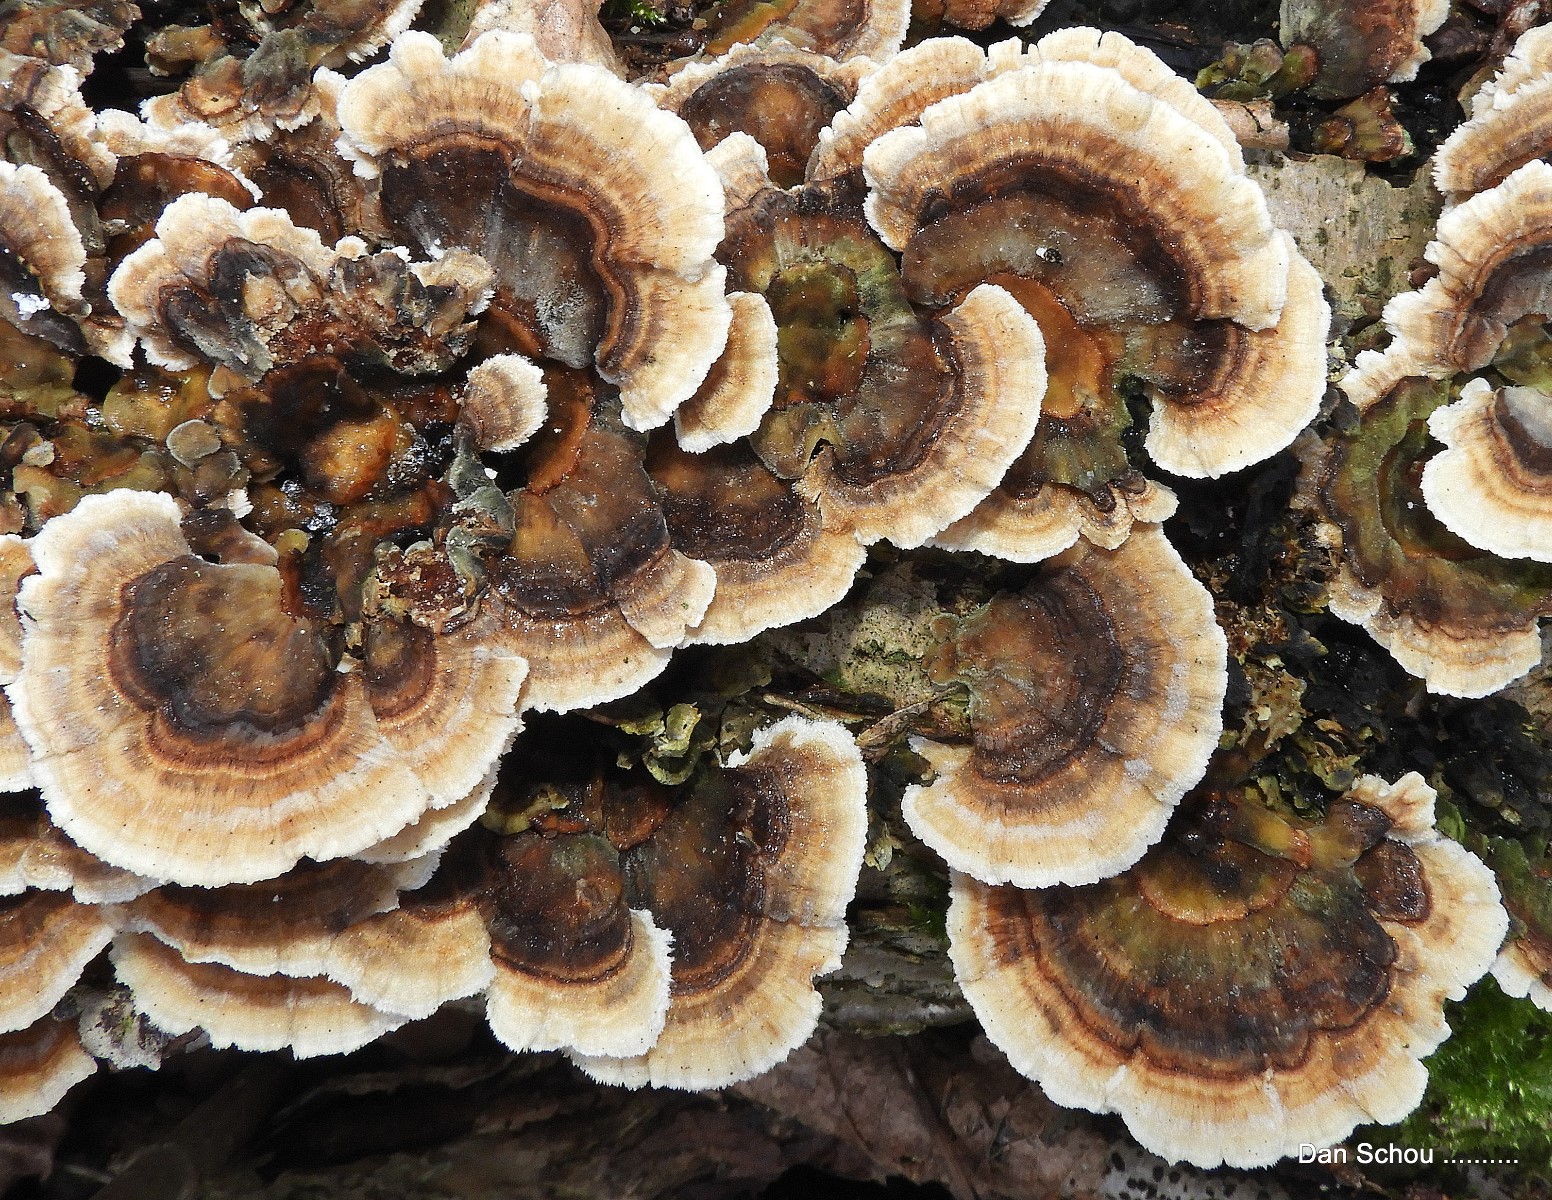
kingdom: Fungi
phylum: Basidiomycota
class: Agaricomycetes
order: Polyporales
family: Polyporaceae
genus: Trametes
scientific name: Trametes versicolor
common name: broget læderporesvamp
